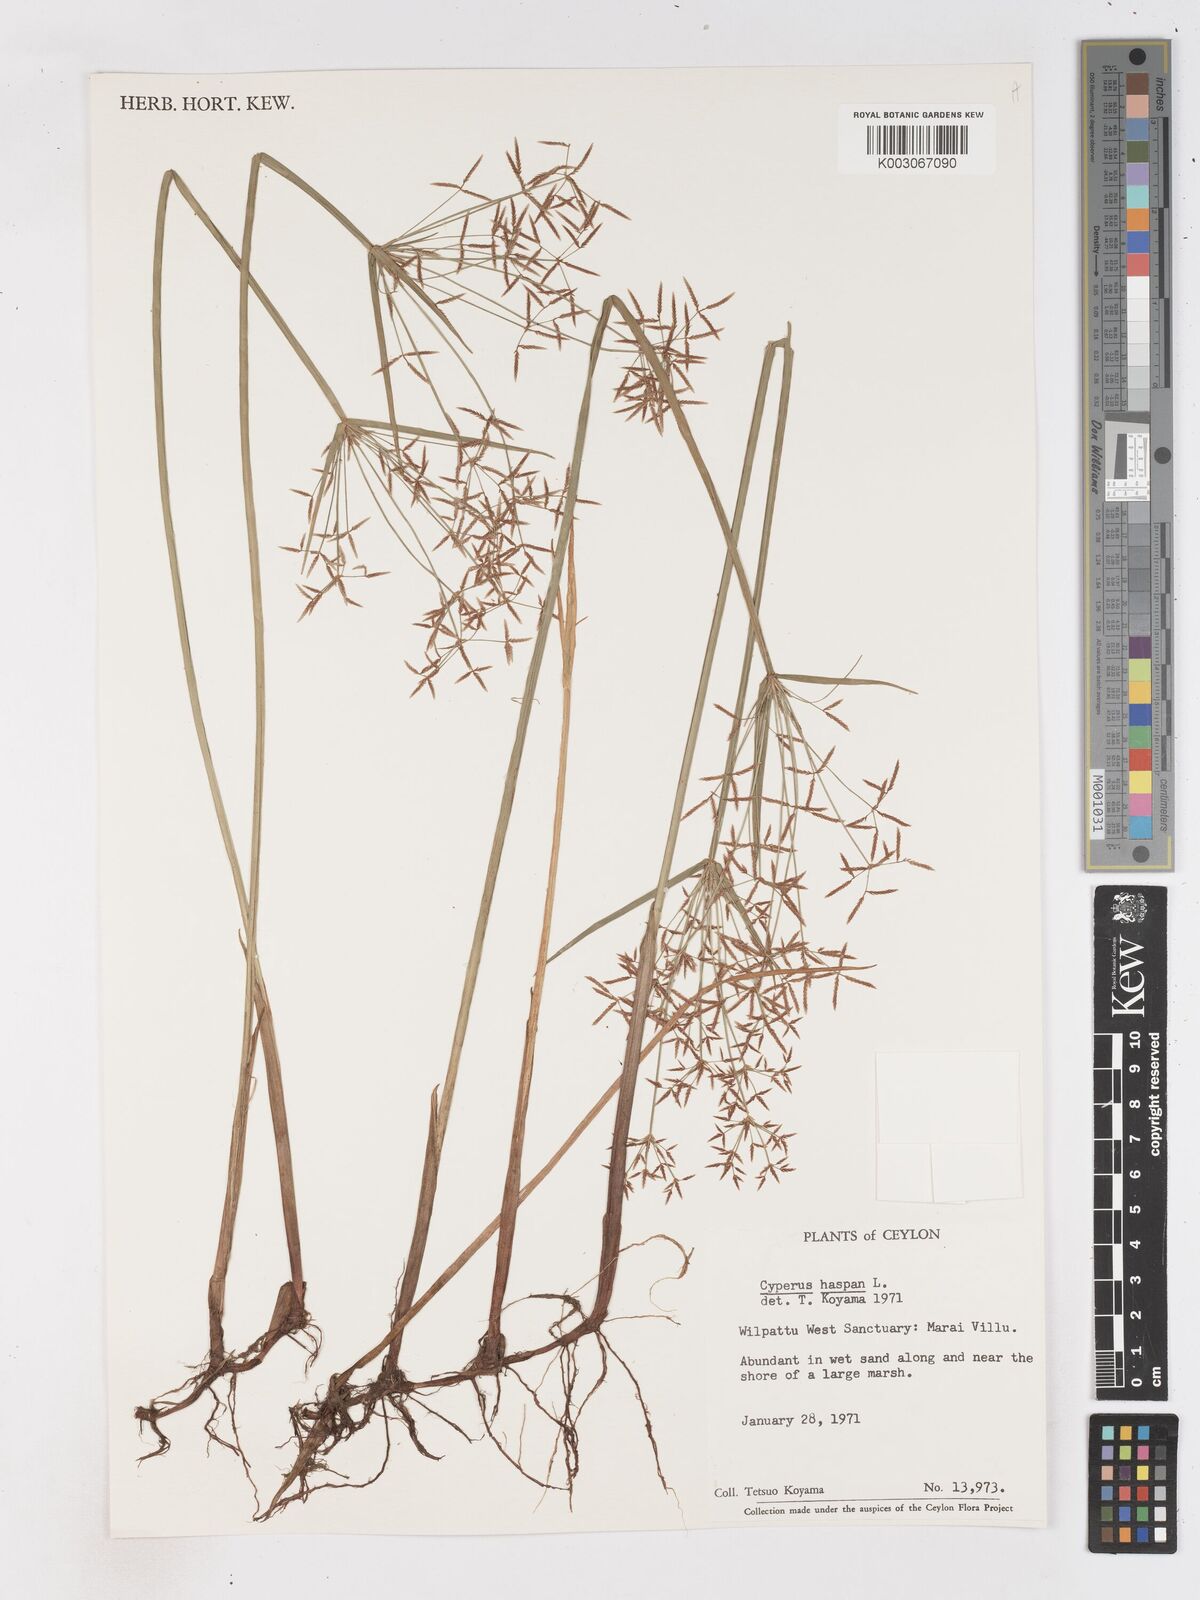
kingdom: Plantae
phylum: Tracheophyta
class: Liliopsida
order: Poales
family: Cyperaceae
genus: Cyperus
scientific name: Cyperus haspan
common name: Haspan flatsedge
